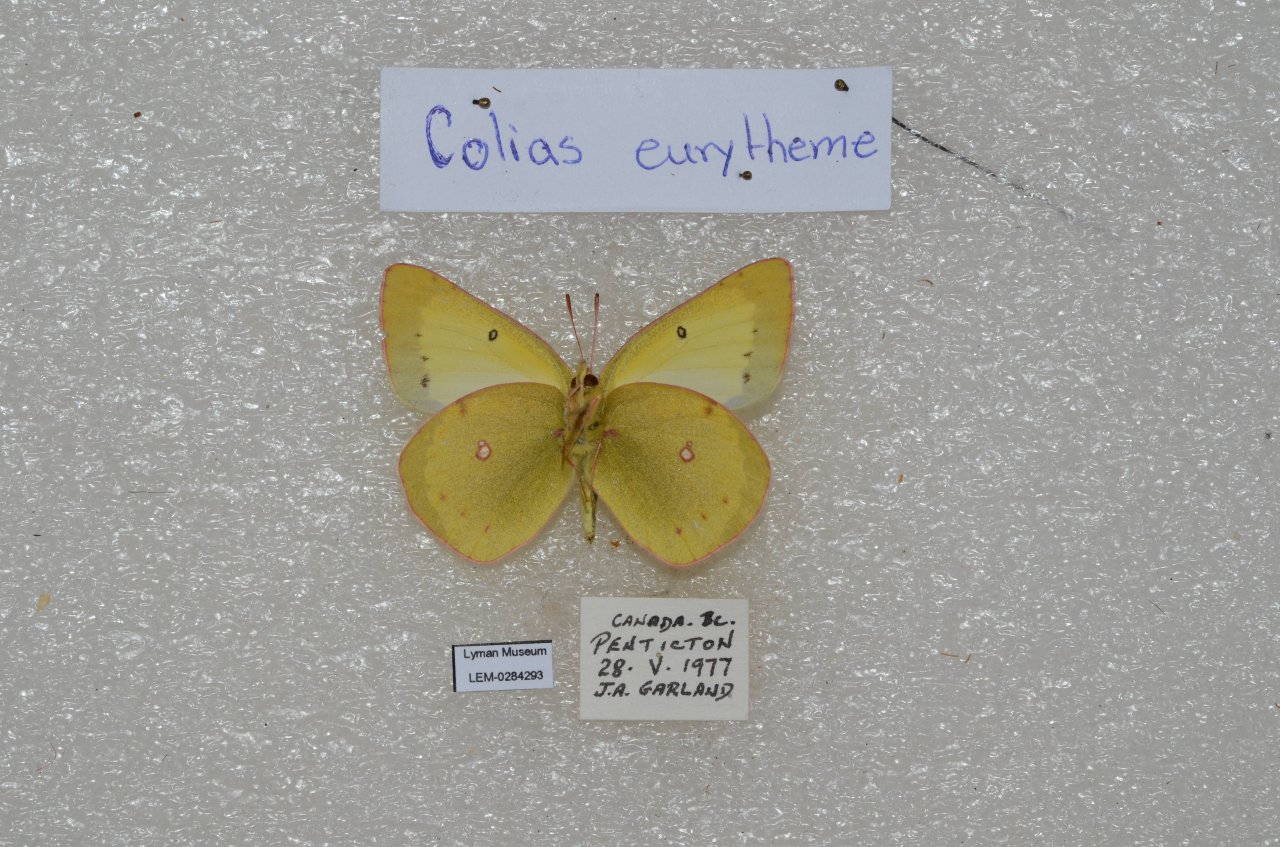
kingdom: Animalia
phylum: Arthropoda
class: Insecta
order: Lepidoptera
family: Pieridae
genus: Colias
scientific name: Colias eurytheme
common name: Orange Sulphur
